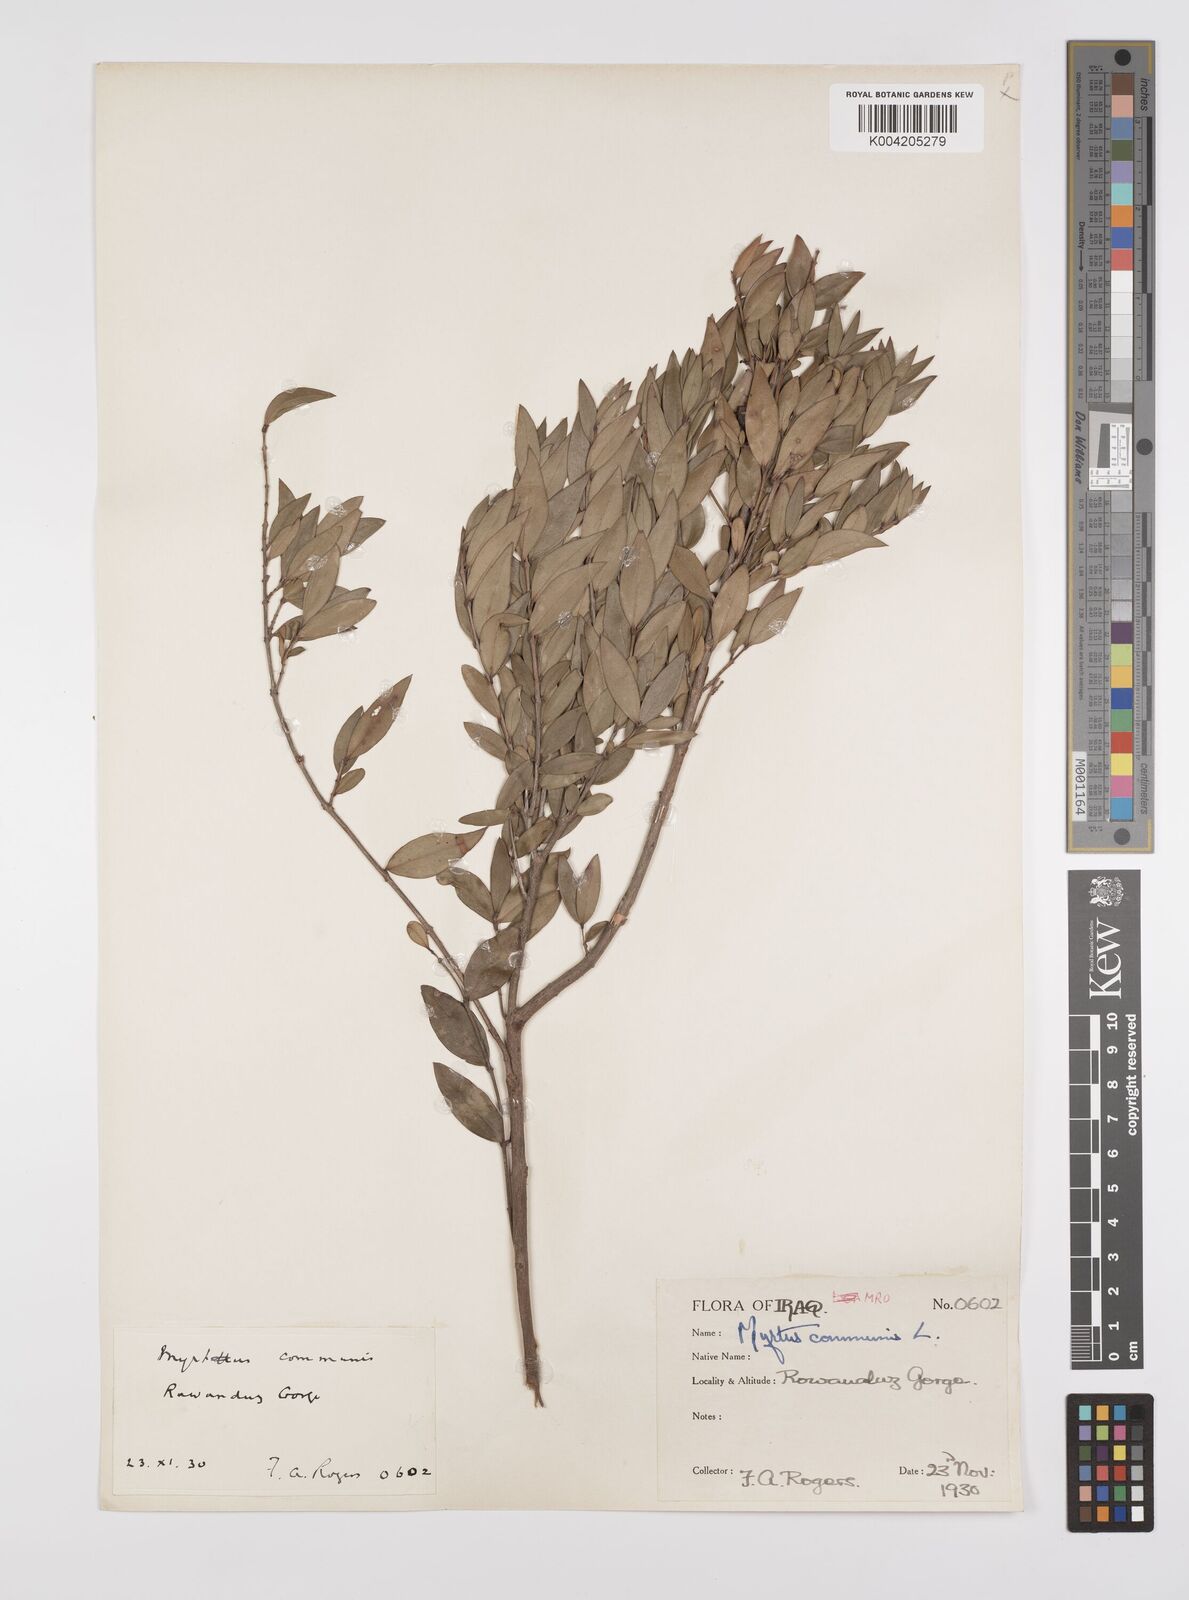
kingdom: Plantae
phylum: Tracheophyta
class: Magnoliopsida
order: Myrtales
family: Myrtaceae
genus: Myrtus
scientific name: Myrtus communis
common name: Myrtle
